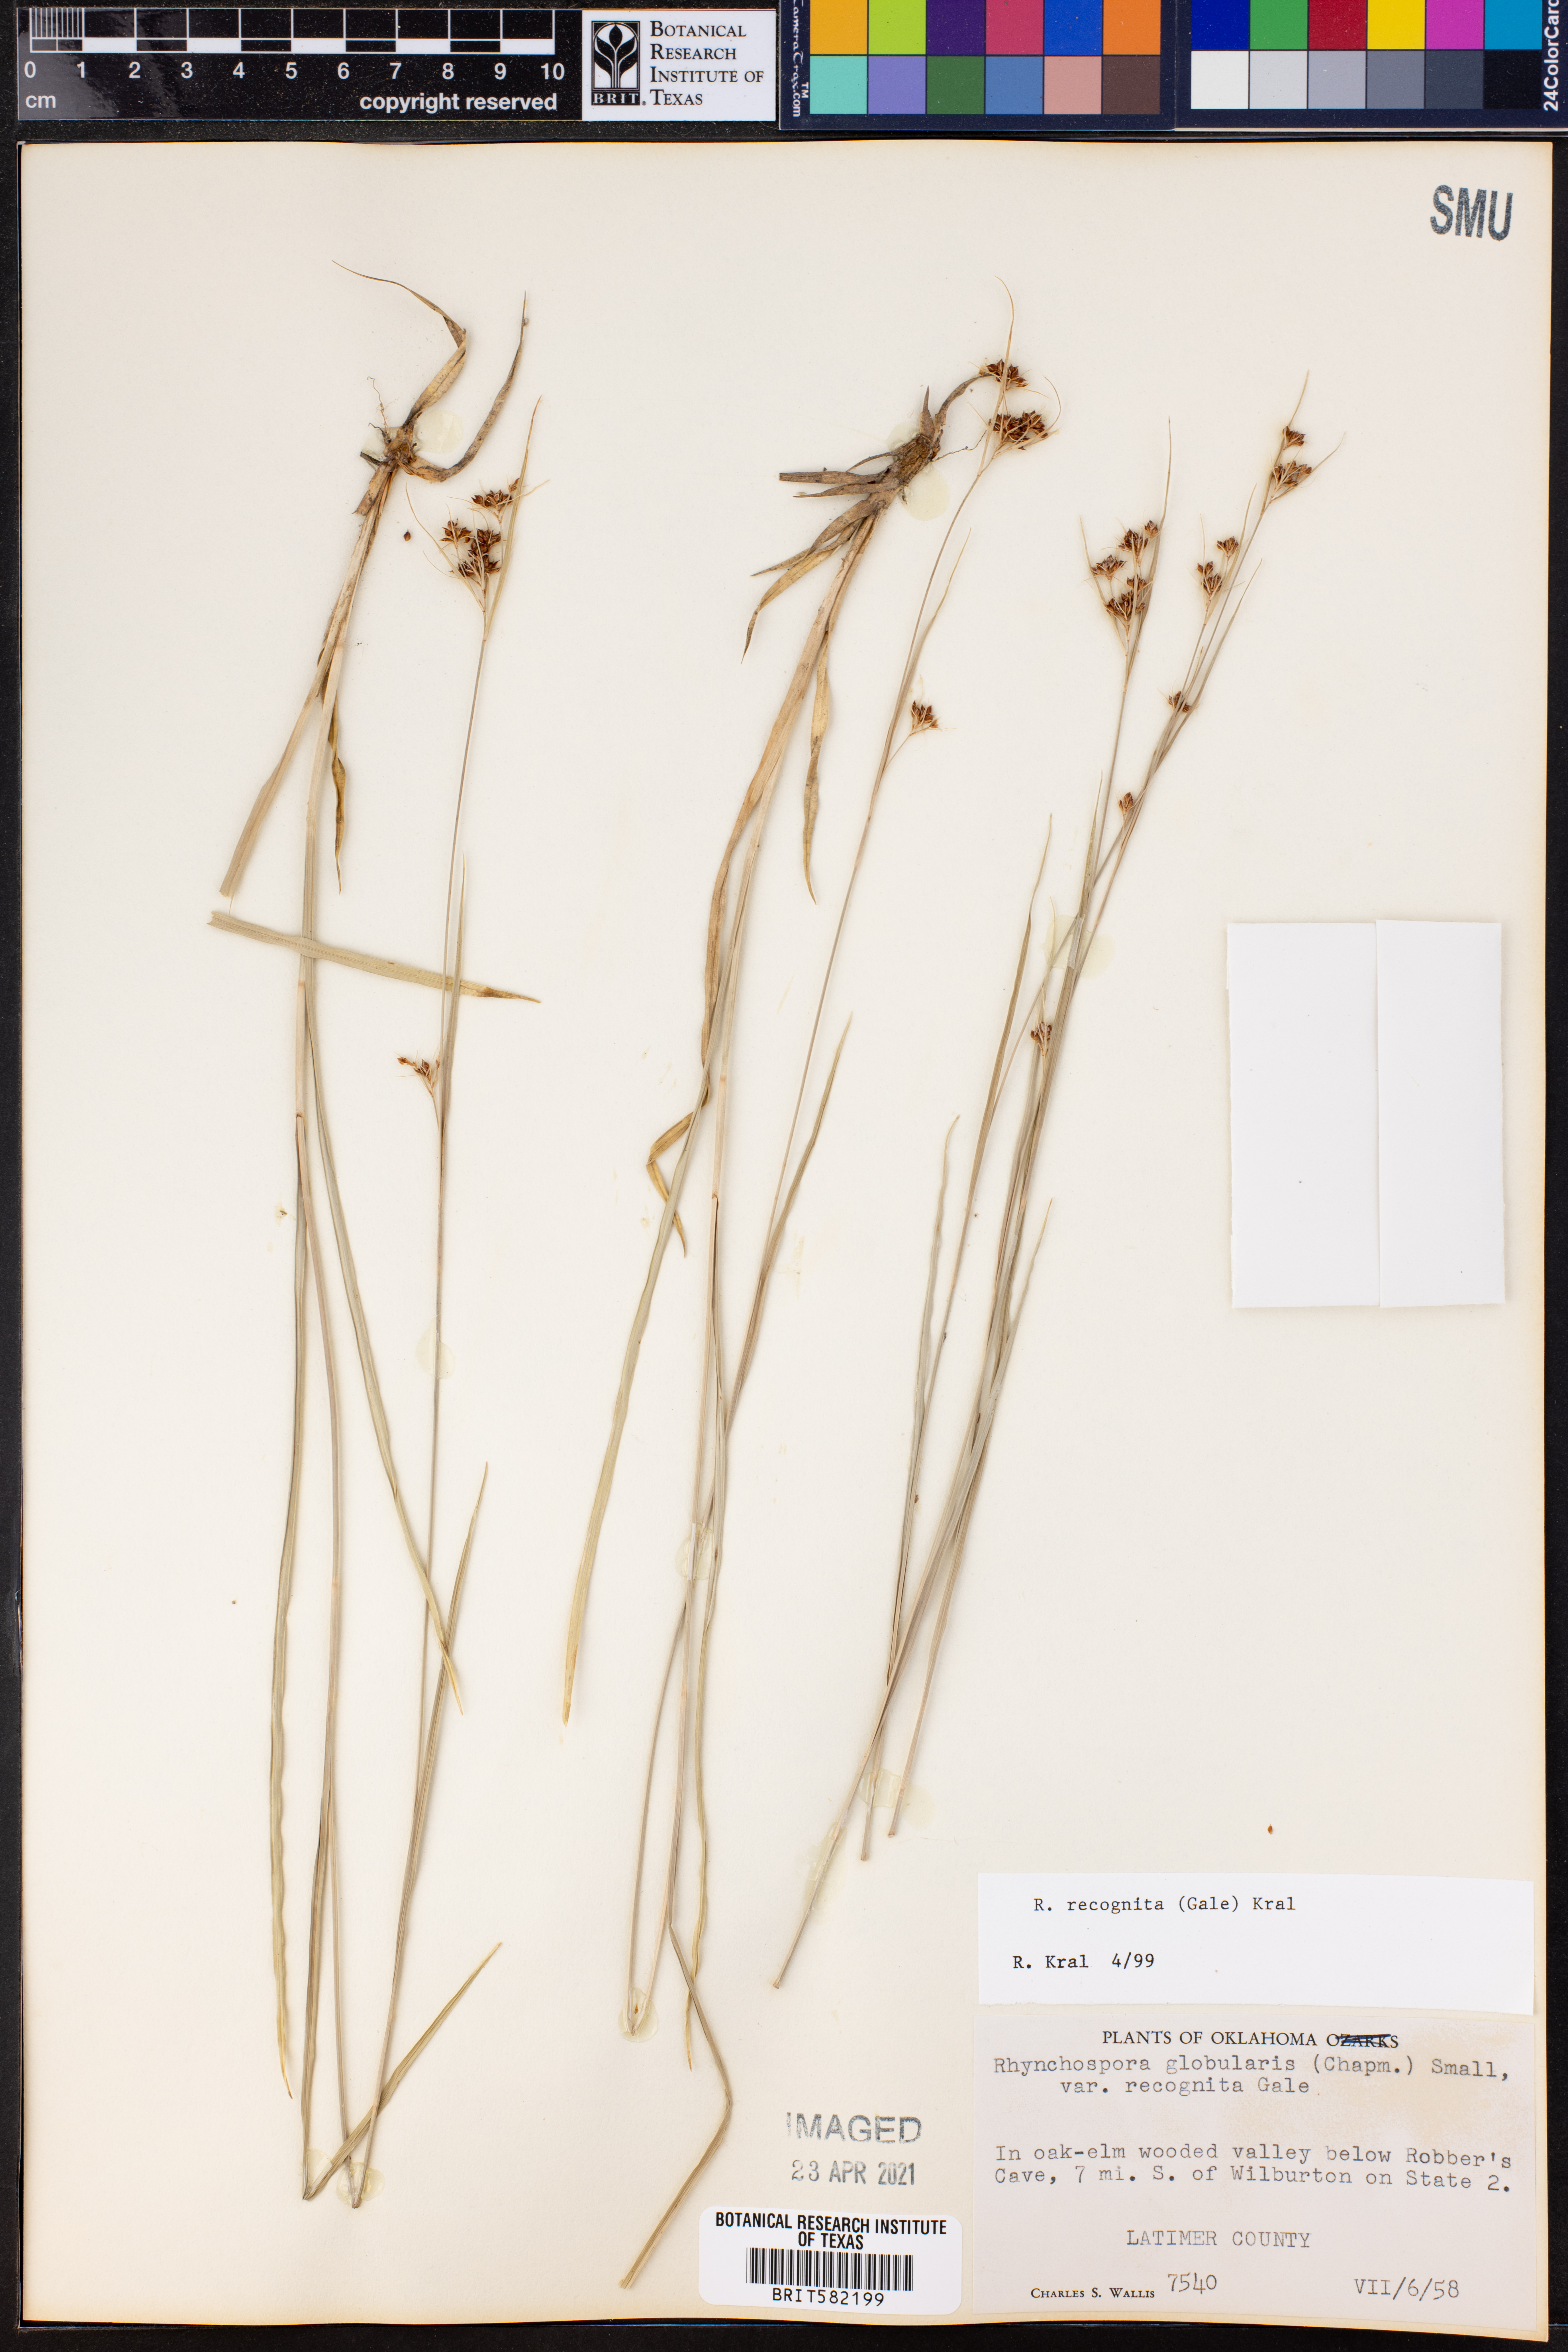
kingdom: Plantae
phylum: Tracheophyta
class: Liliopsida
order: Poales
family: Cyperaceae
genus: Rhynchospora
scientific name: Rhynchospora recognita
